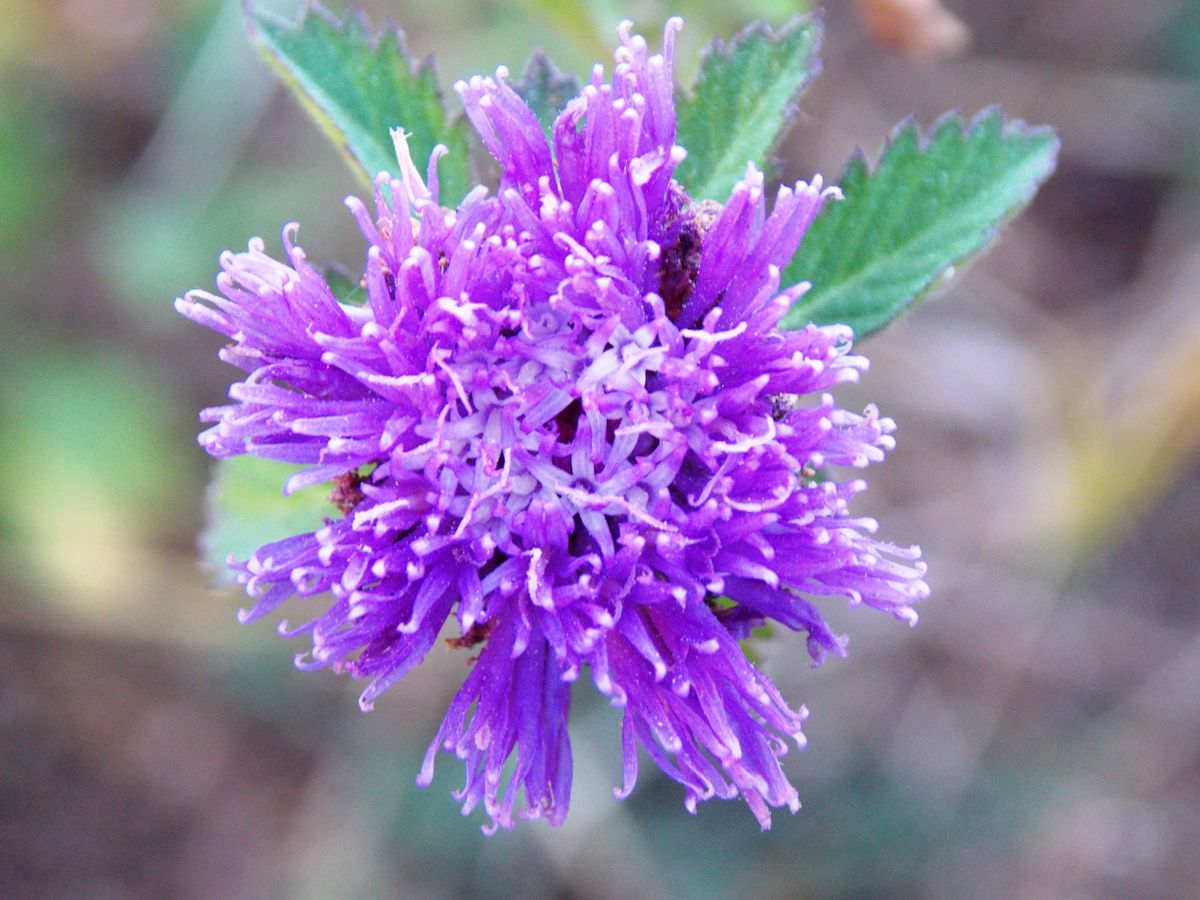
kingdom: Plantae
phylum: Tracheophyta
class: Magnoliopsida
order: Asterales
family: Asteraceae
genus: Centratherum
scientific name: Centratherum punctatum
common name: Larkdaisy
